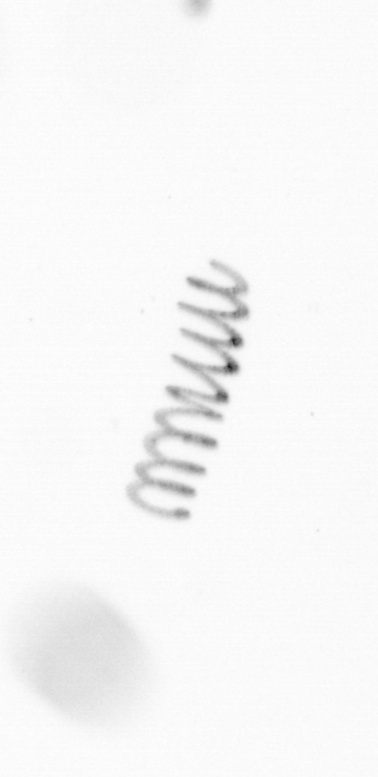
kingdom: Chromista
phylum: Ochrophyta
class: Bacillariophyceae
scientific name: Bacillariophyceae
